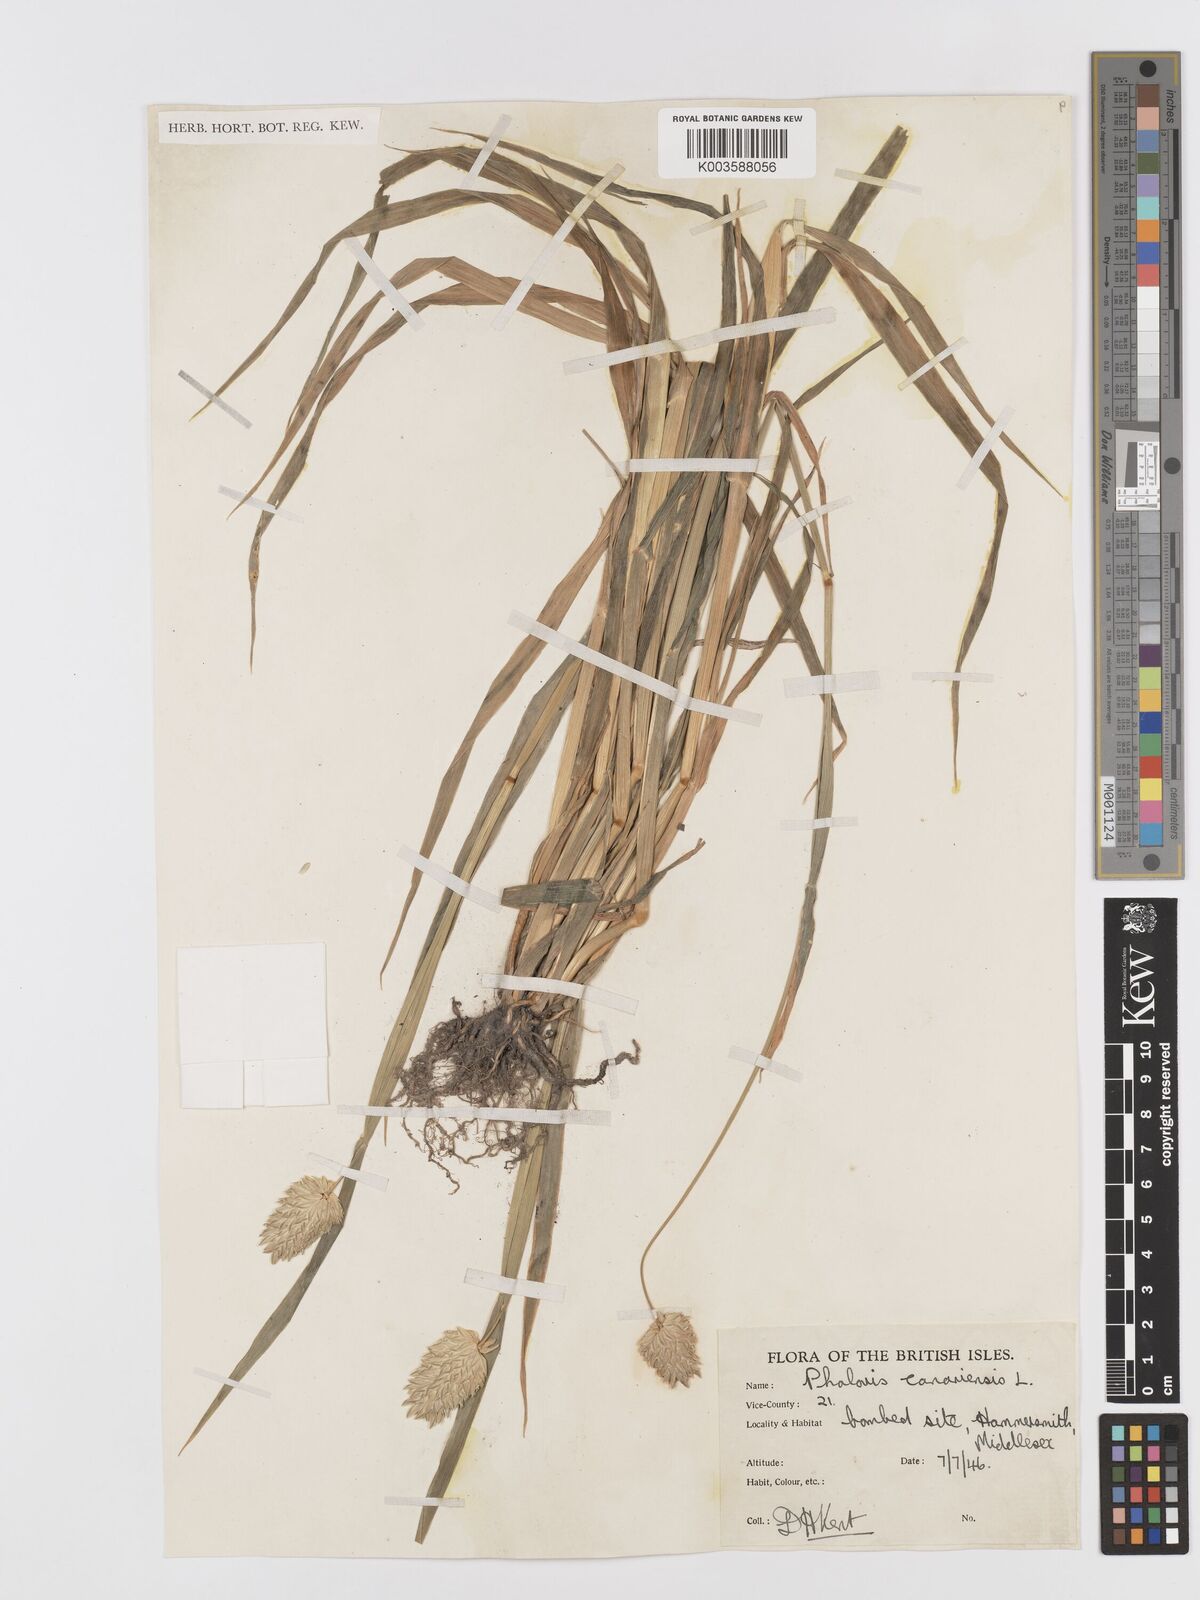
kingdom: Plantae
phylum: Tracheophyta
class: Liliopsida
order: Poales
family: Poaceae
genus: Phalaris
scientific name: Phalaris canariensis
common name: Annual canarygrass
